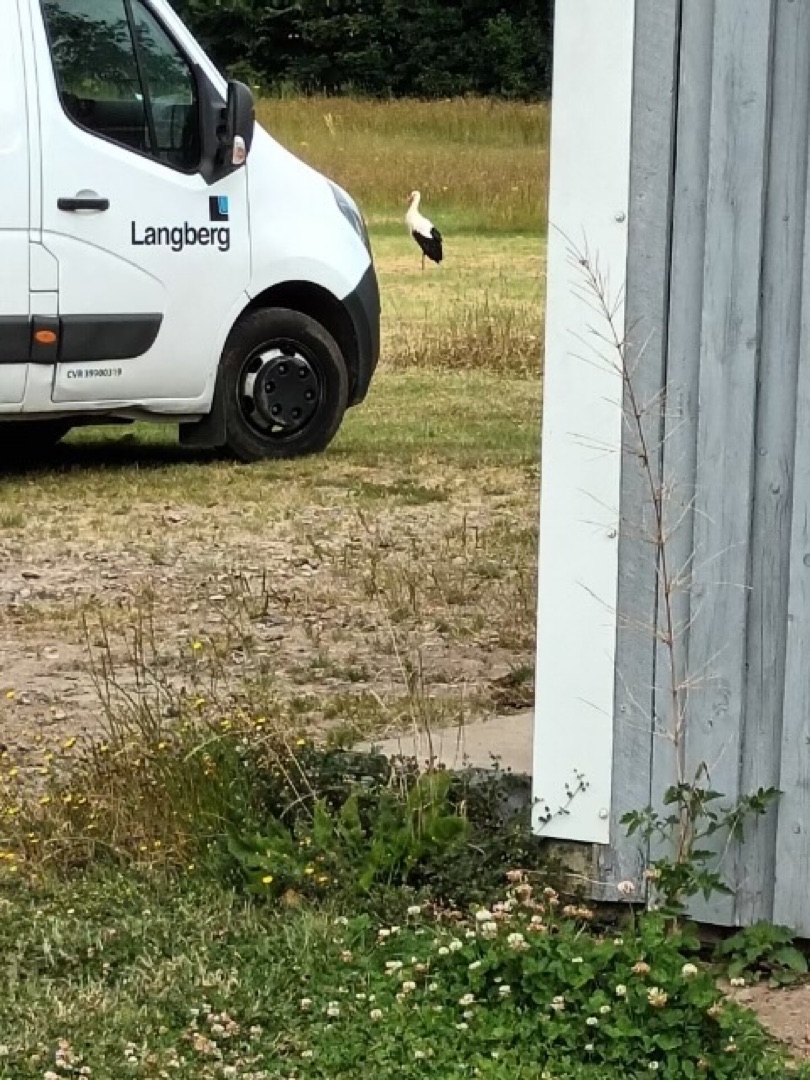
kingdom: Animalia
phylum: Chordata
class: Aves
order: Ciconiiformes
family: Ciconiidae
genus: Ciconia
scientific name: Ciconia ciconia
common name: Hvid stork
